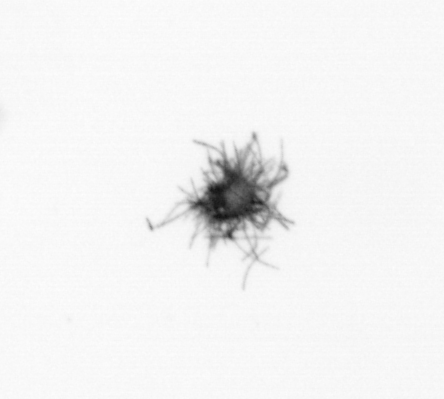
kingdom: Bacteria
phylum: Cyanobacteria
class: Cyanobacteriia
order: Cyanobacteriales
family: Microcoleaceae
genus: Trichodesmium
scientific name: Trichodesmium
